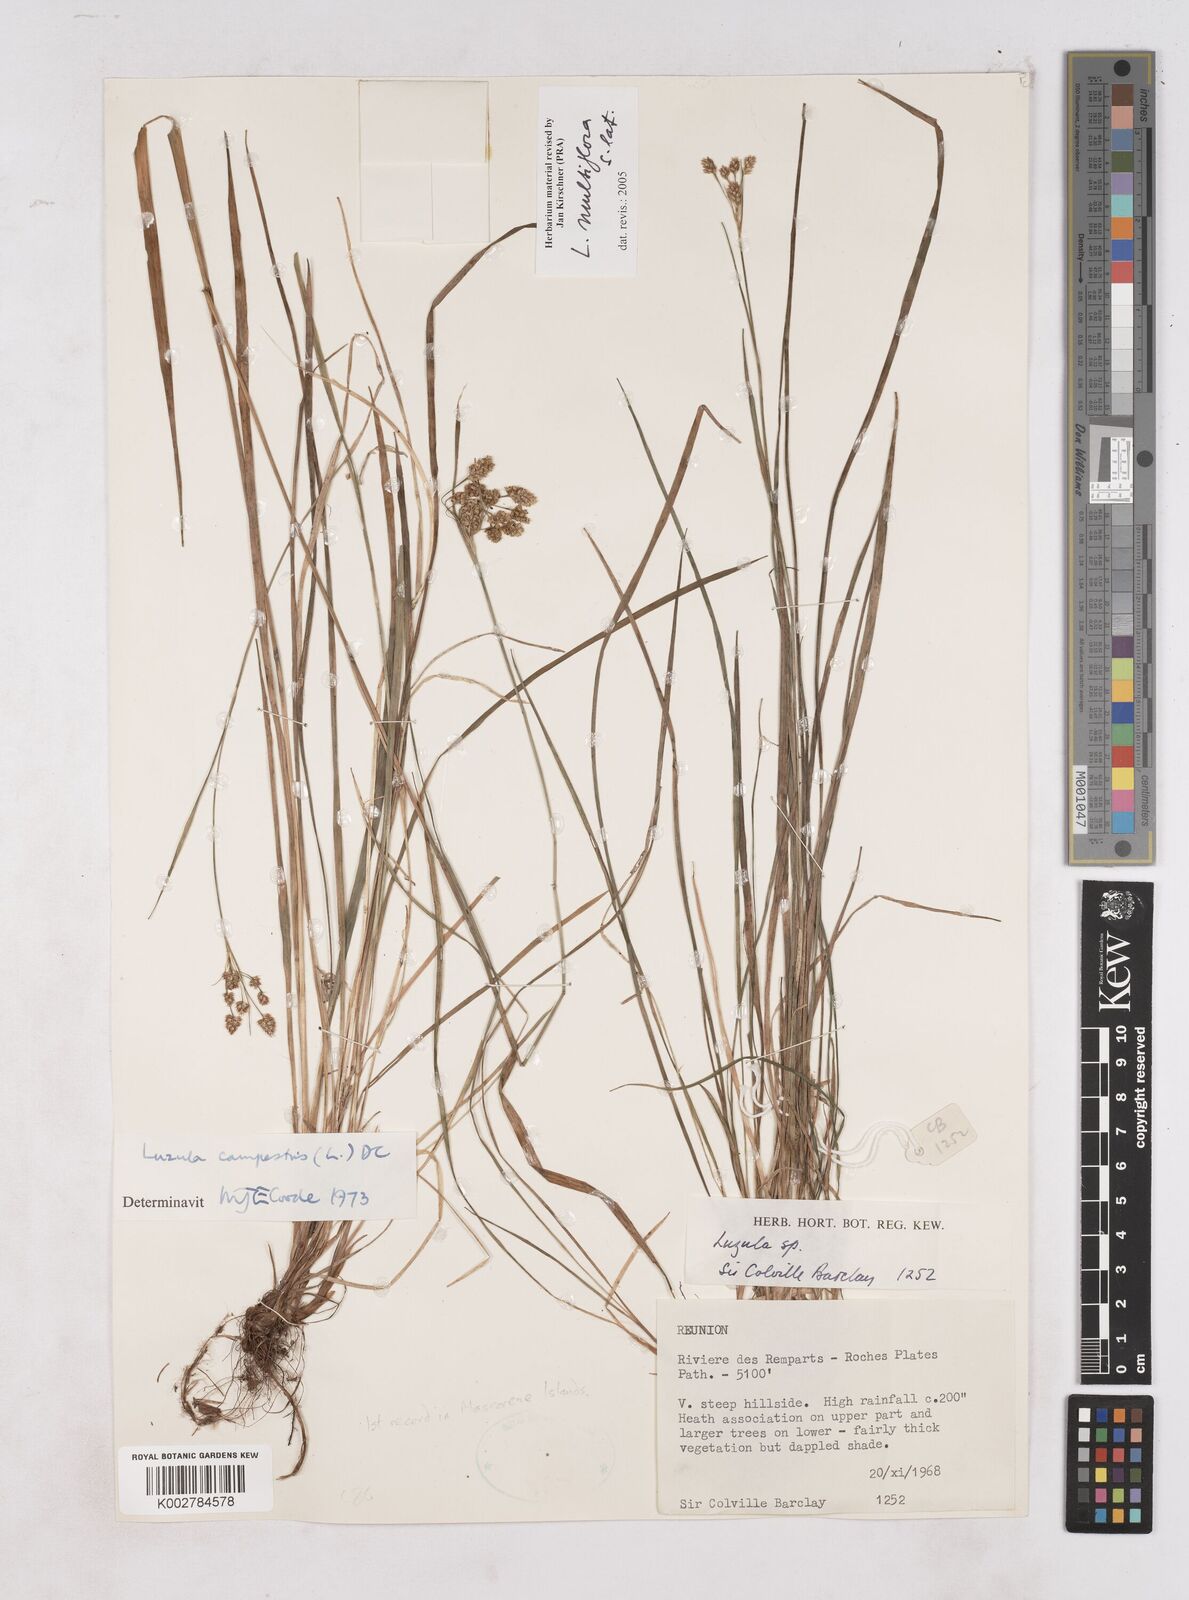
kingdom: Plantae
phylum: Tracheophyta
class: Liliopsida
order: Poales
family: Juncaceae
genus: Luzula
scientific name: Luzula multiflora
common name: Heath wood-rush
